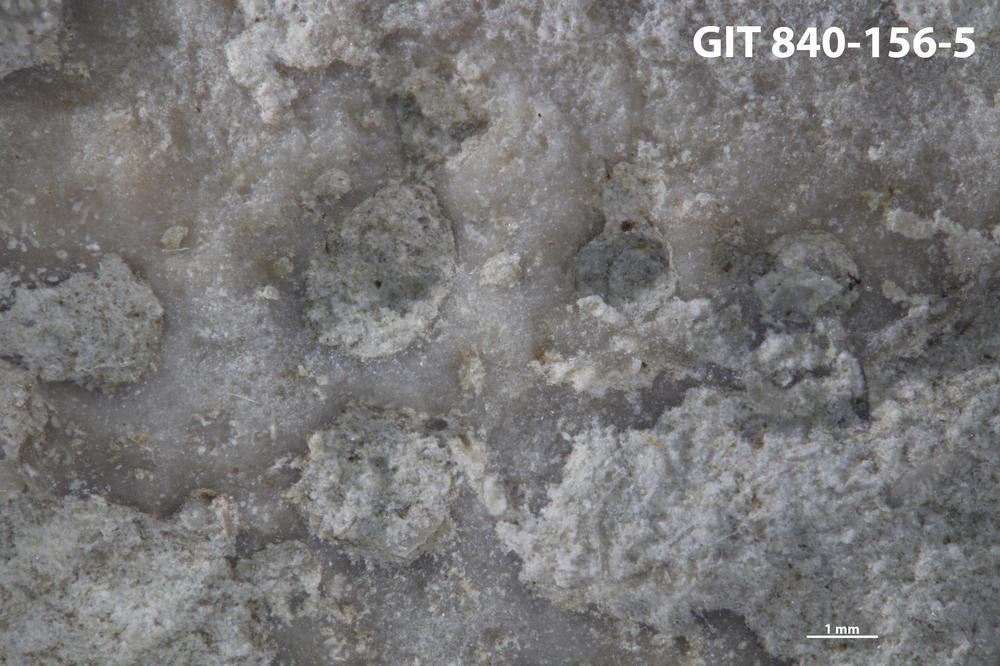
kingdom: Animalia
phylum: Sipuncula
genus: Trypanites
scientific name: Trypanites
